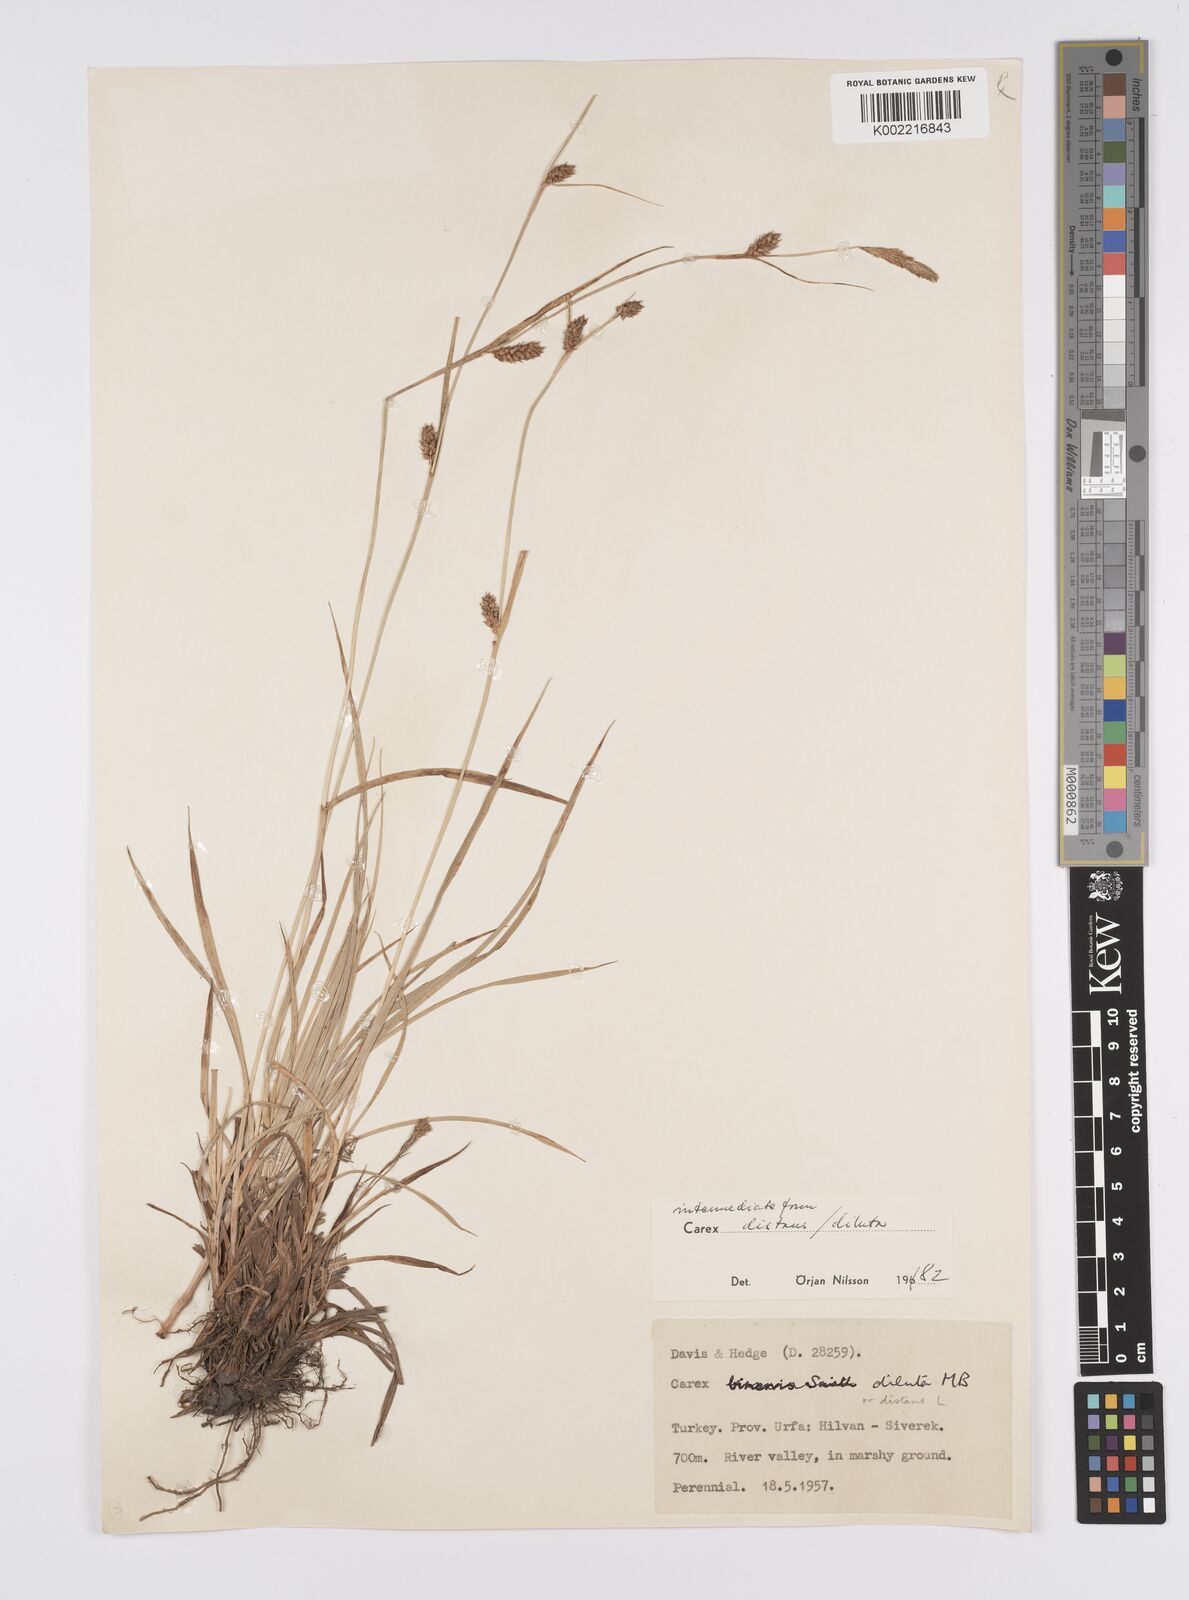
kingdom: Plantae
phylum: Tracheophyta
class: Liliopsida
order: Poales
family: Cyperaceae
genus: Carex
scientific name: Carex diluta
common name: Sedge
